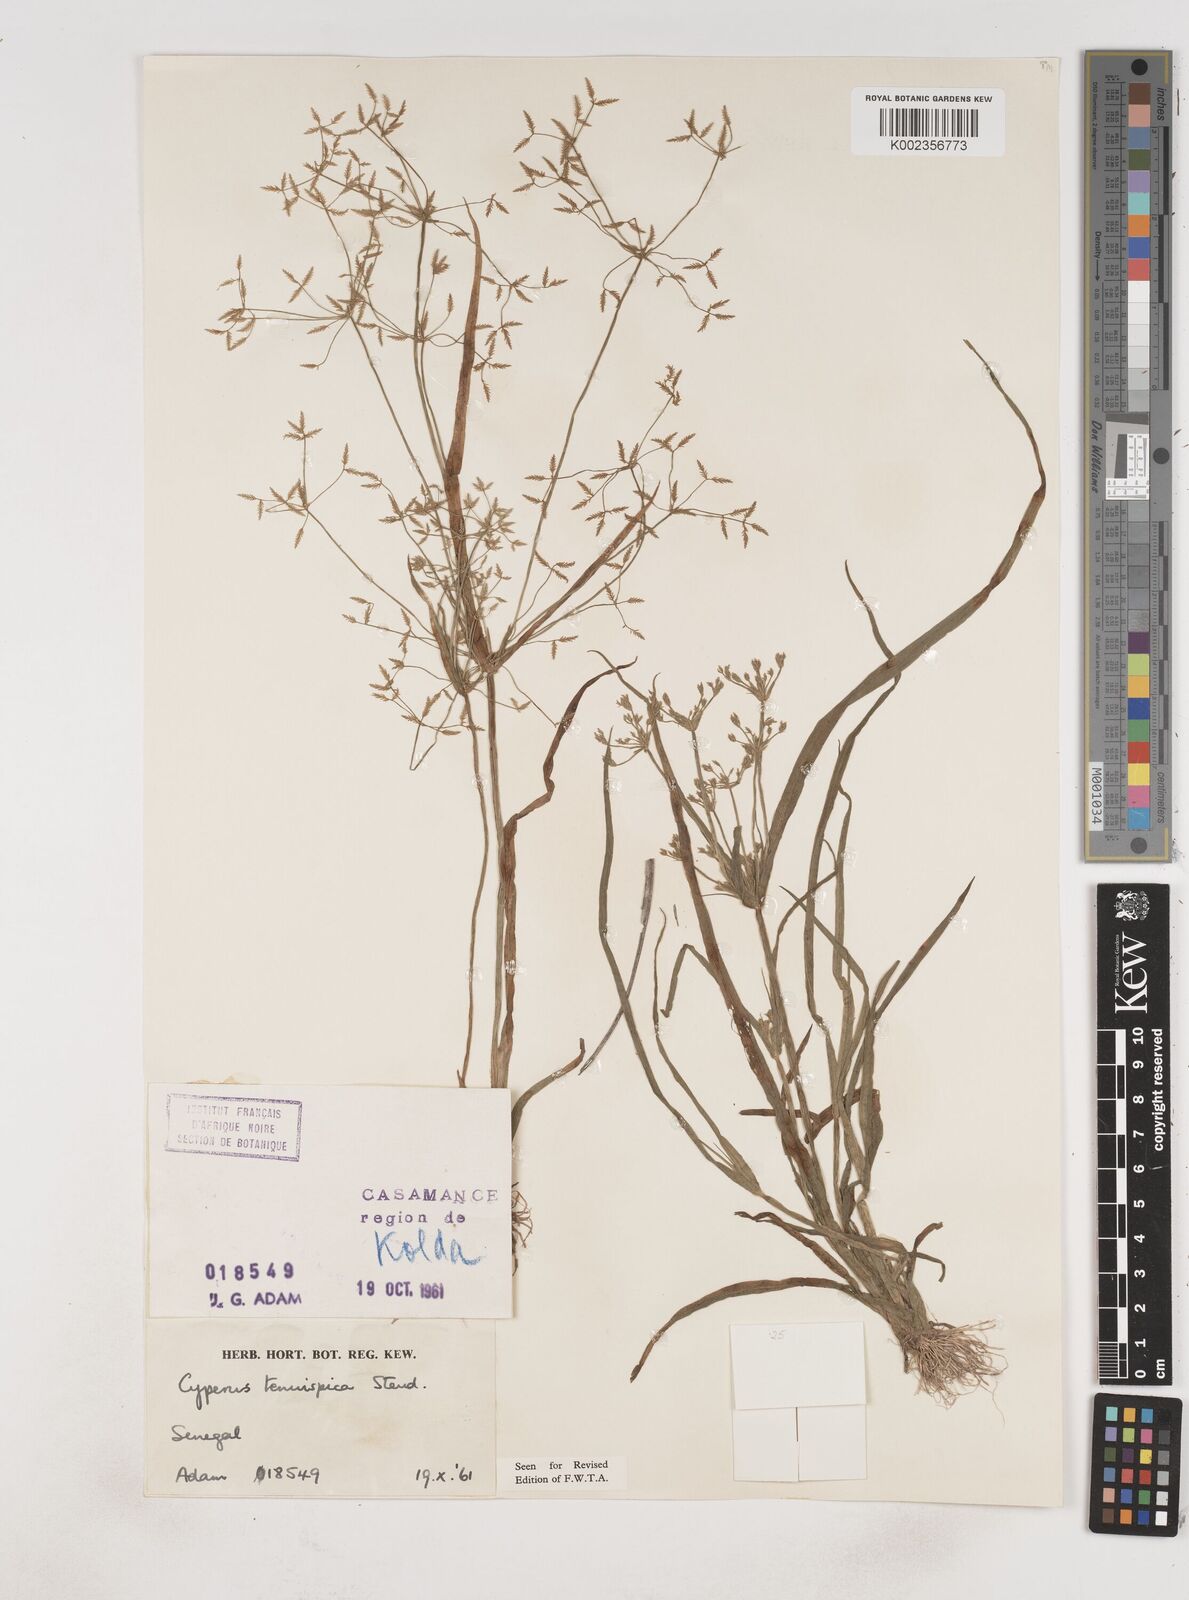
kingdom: Plantae
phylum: Tracheophyta
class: Liliopsida
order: Poales
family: Cyperaceae
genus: Cyperus
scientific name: Cyperus tenuispica
